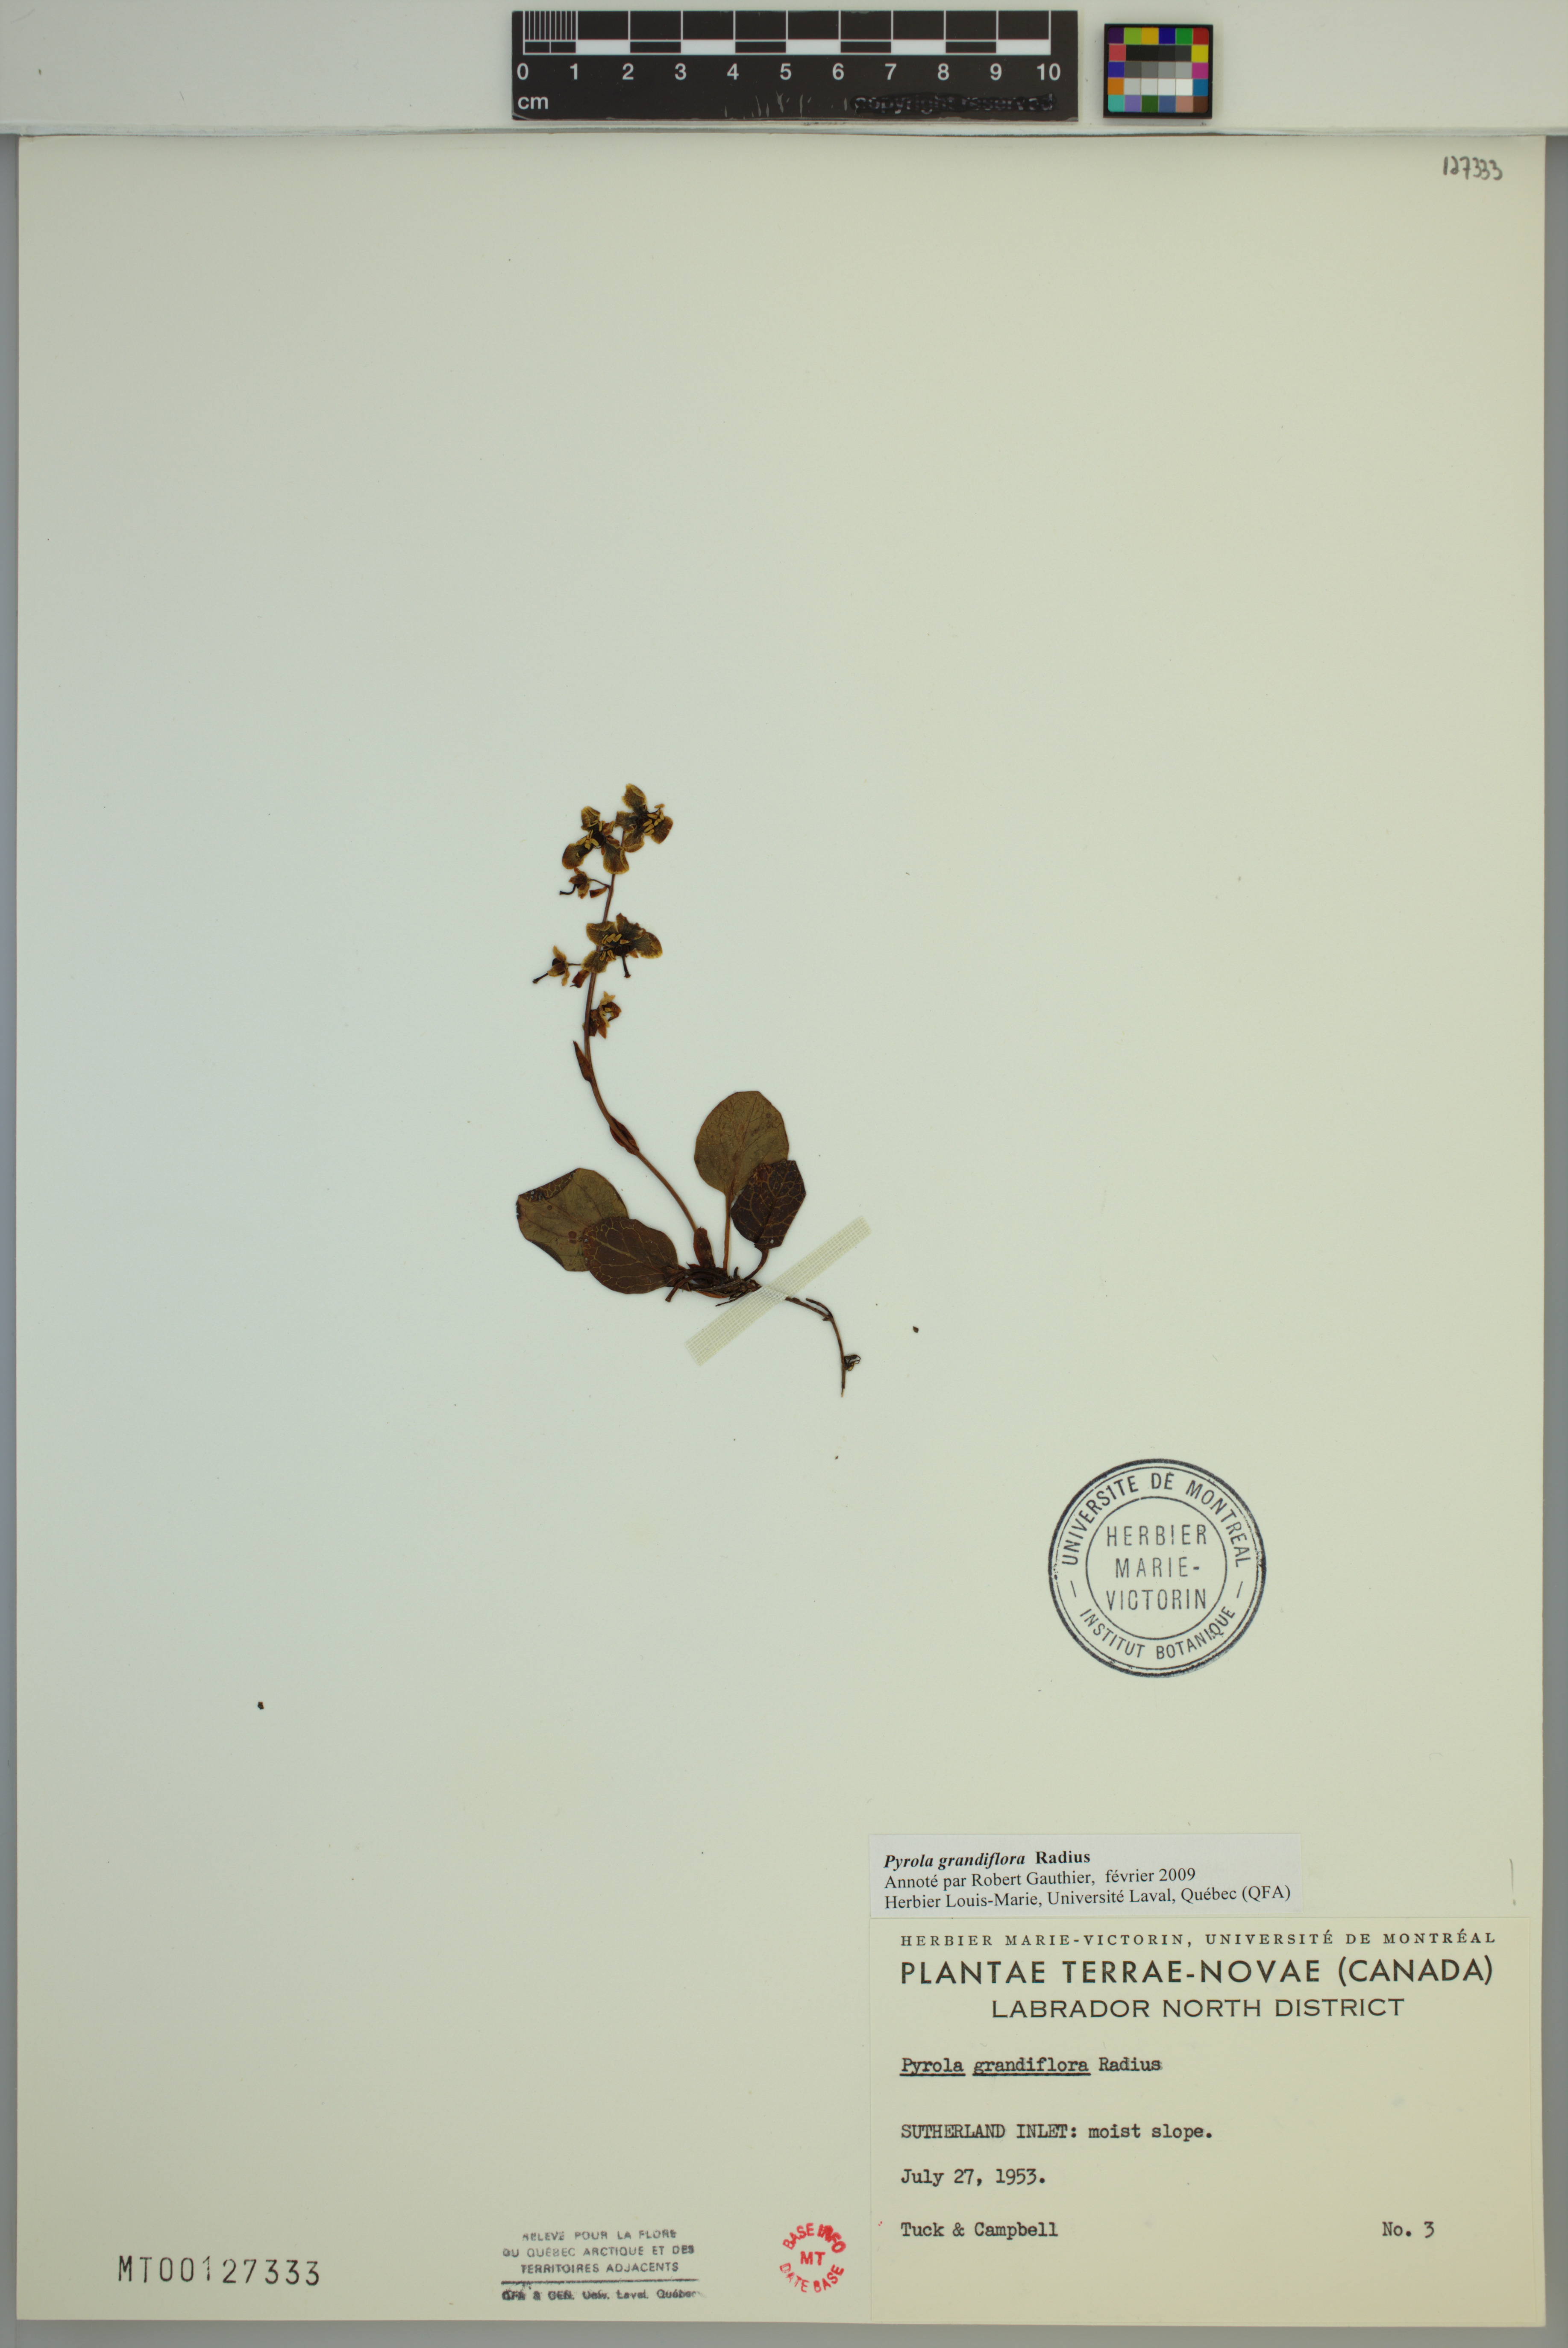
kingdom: Plantae
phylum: Tracheophyta
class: Magnoliopsida
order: Ericales
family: Ericaceae
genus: Pyrola
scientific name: Pyrola grandiflora
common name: Arctic pyrola
